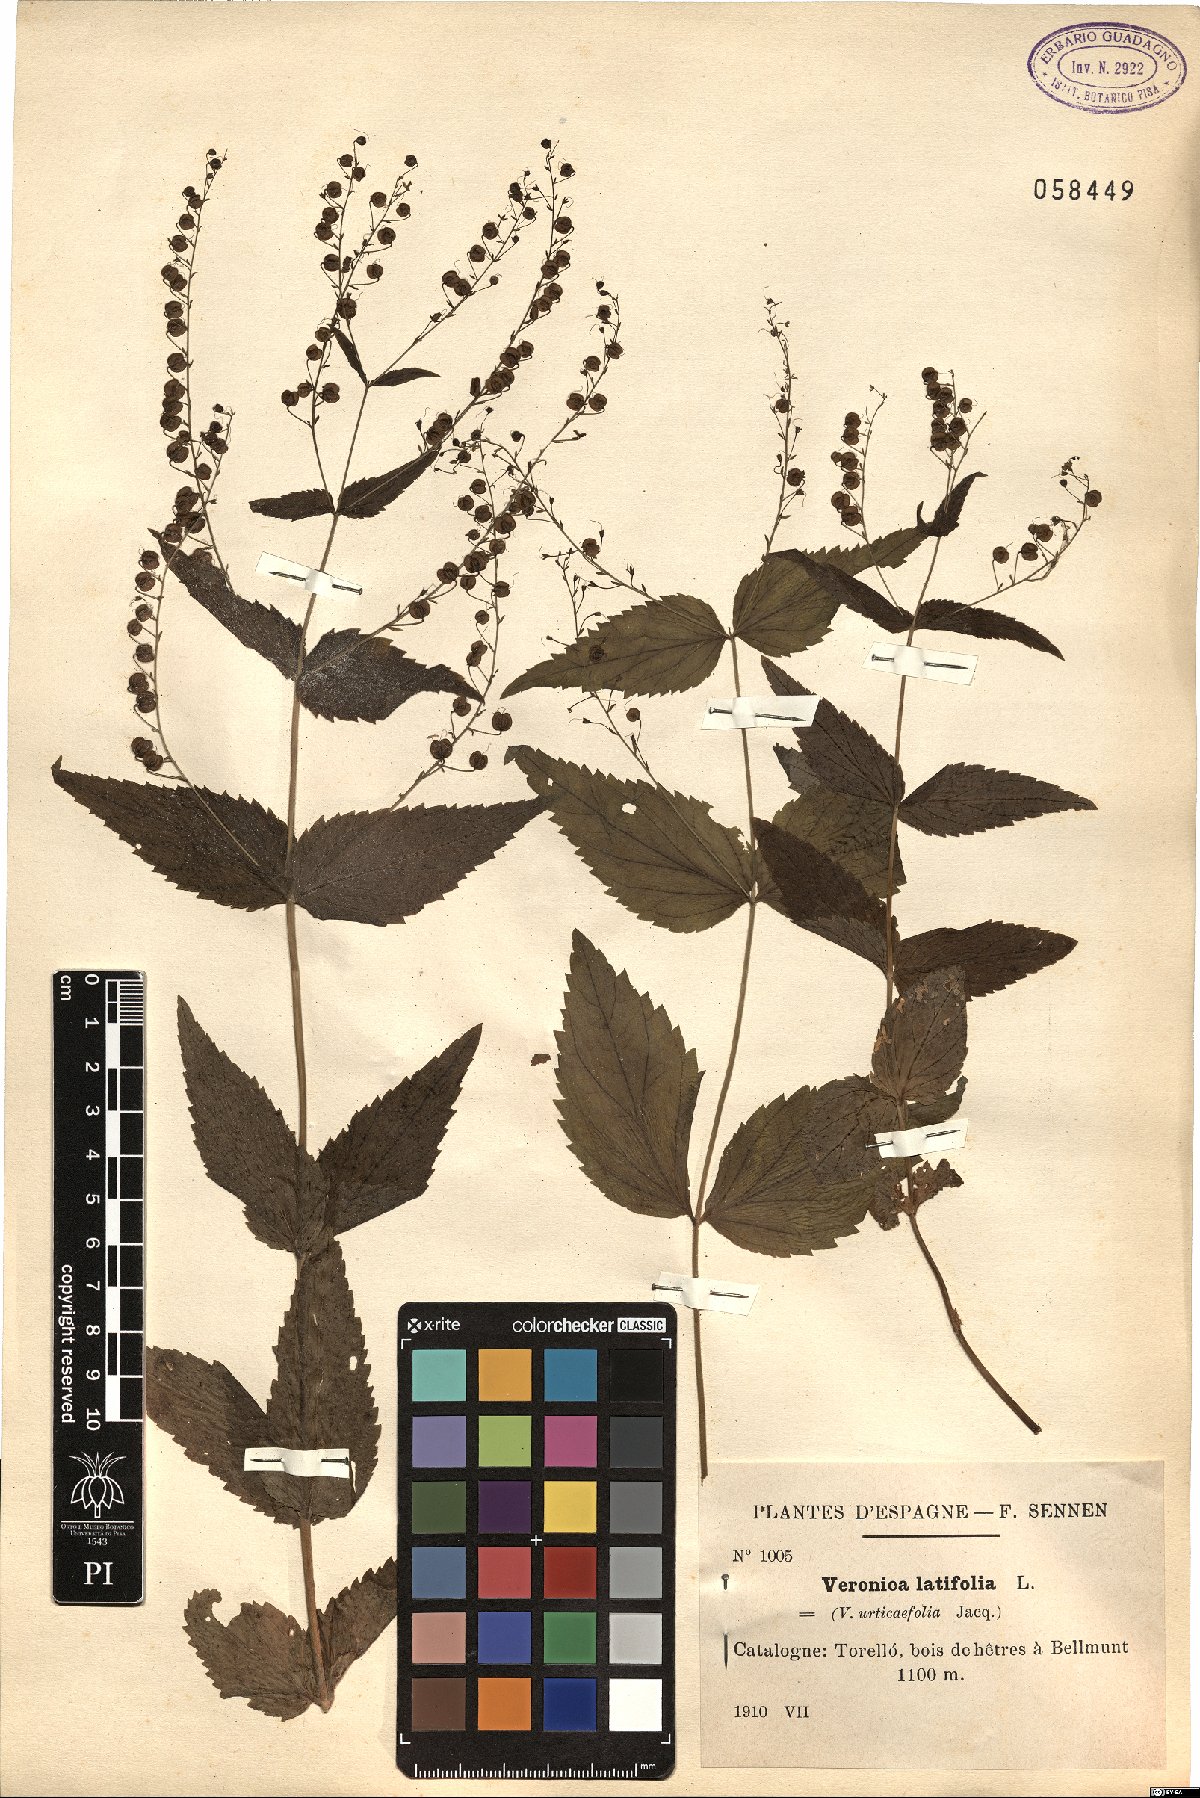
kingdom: Plantae
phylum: Tracheophyta
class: Magnoliopsida
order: Lamiales
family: Plantaginaceae
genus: Veronica
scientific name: Veronica teucrium
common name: Large speedwell
